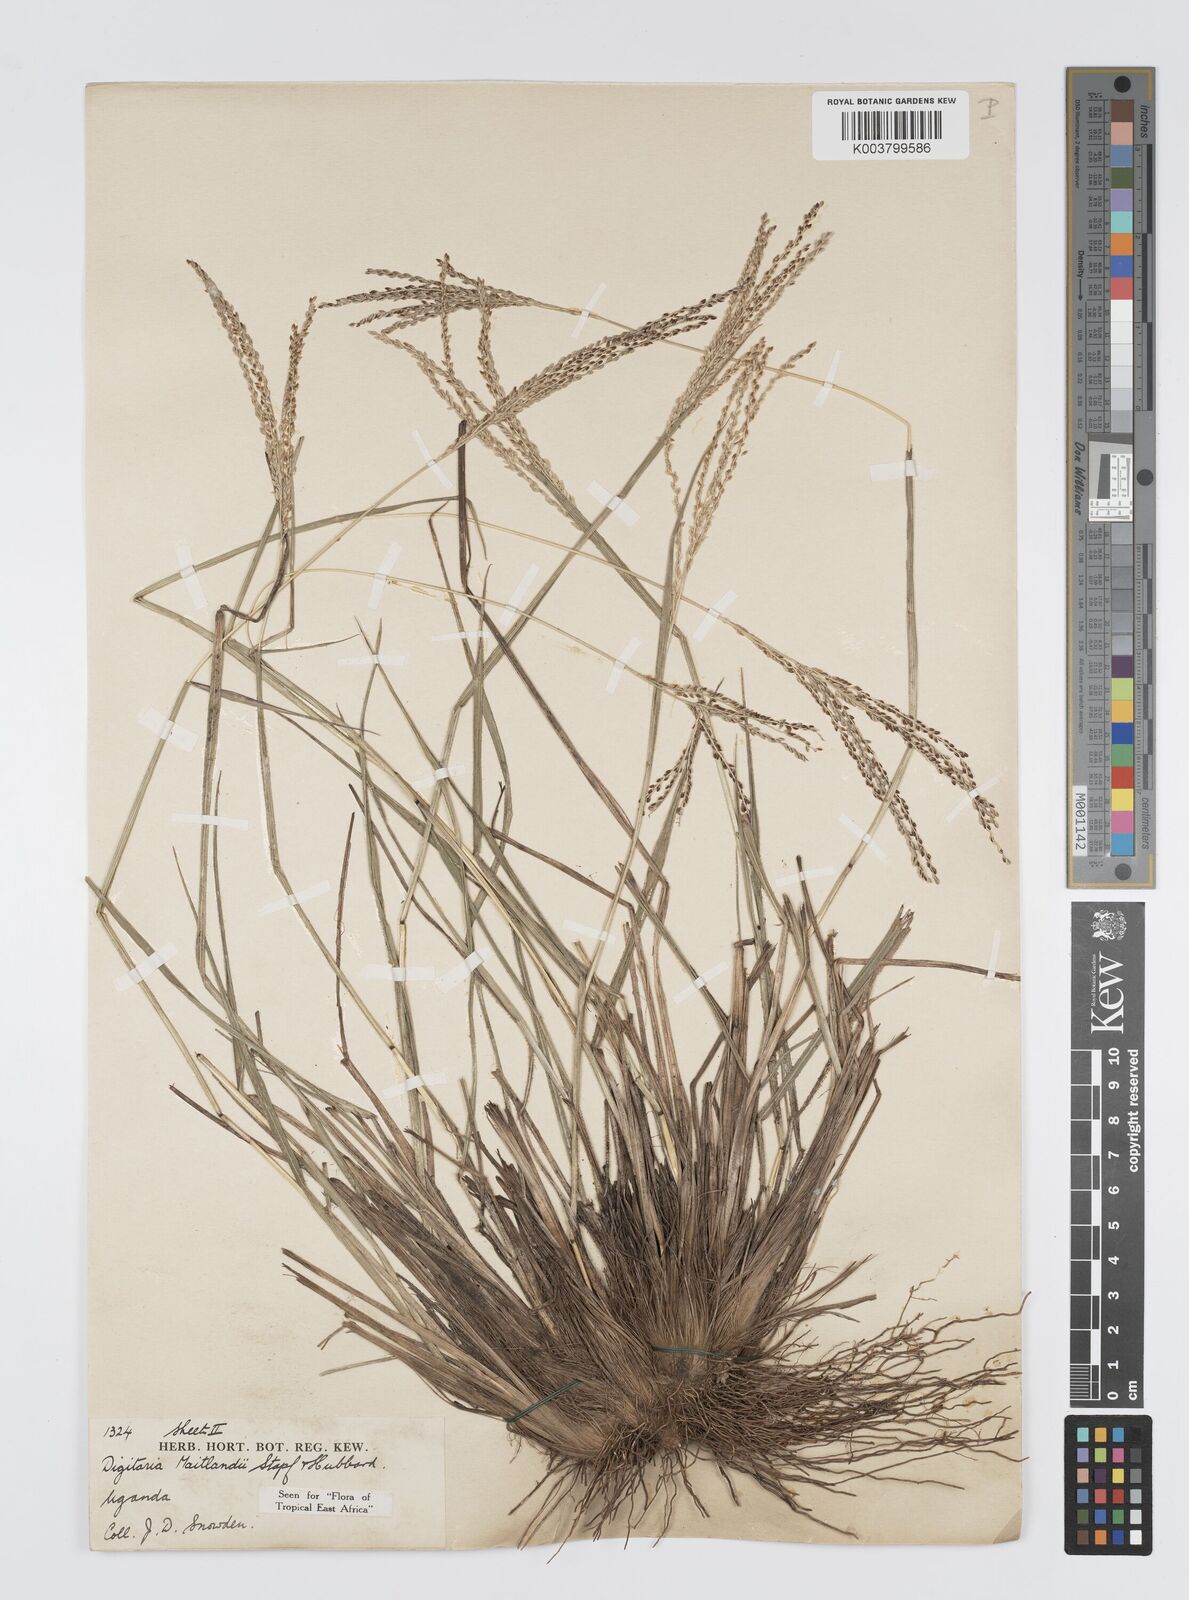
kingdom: Plantae
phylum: Tracheophyta
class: Liliopsida
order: Poales
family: Poaceae
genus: Digitaria
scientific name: Digitaria maitlandii
